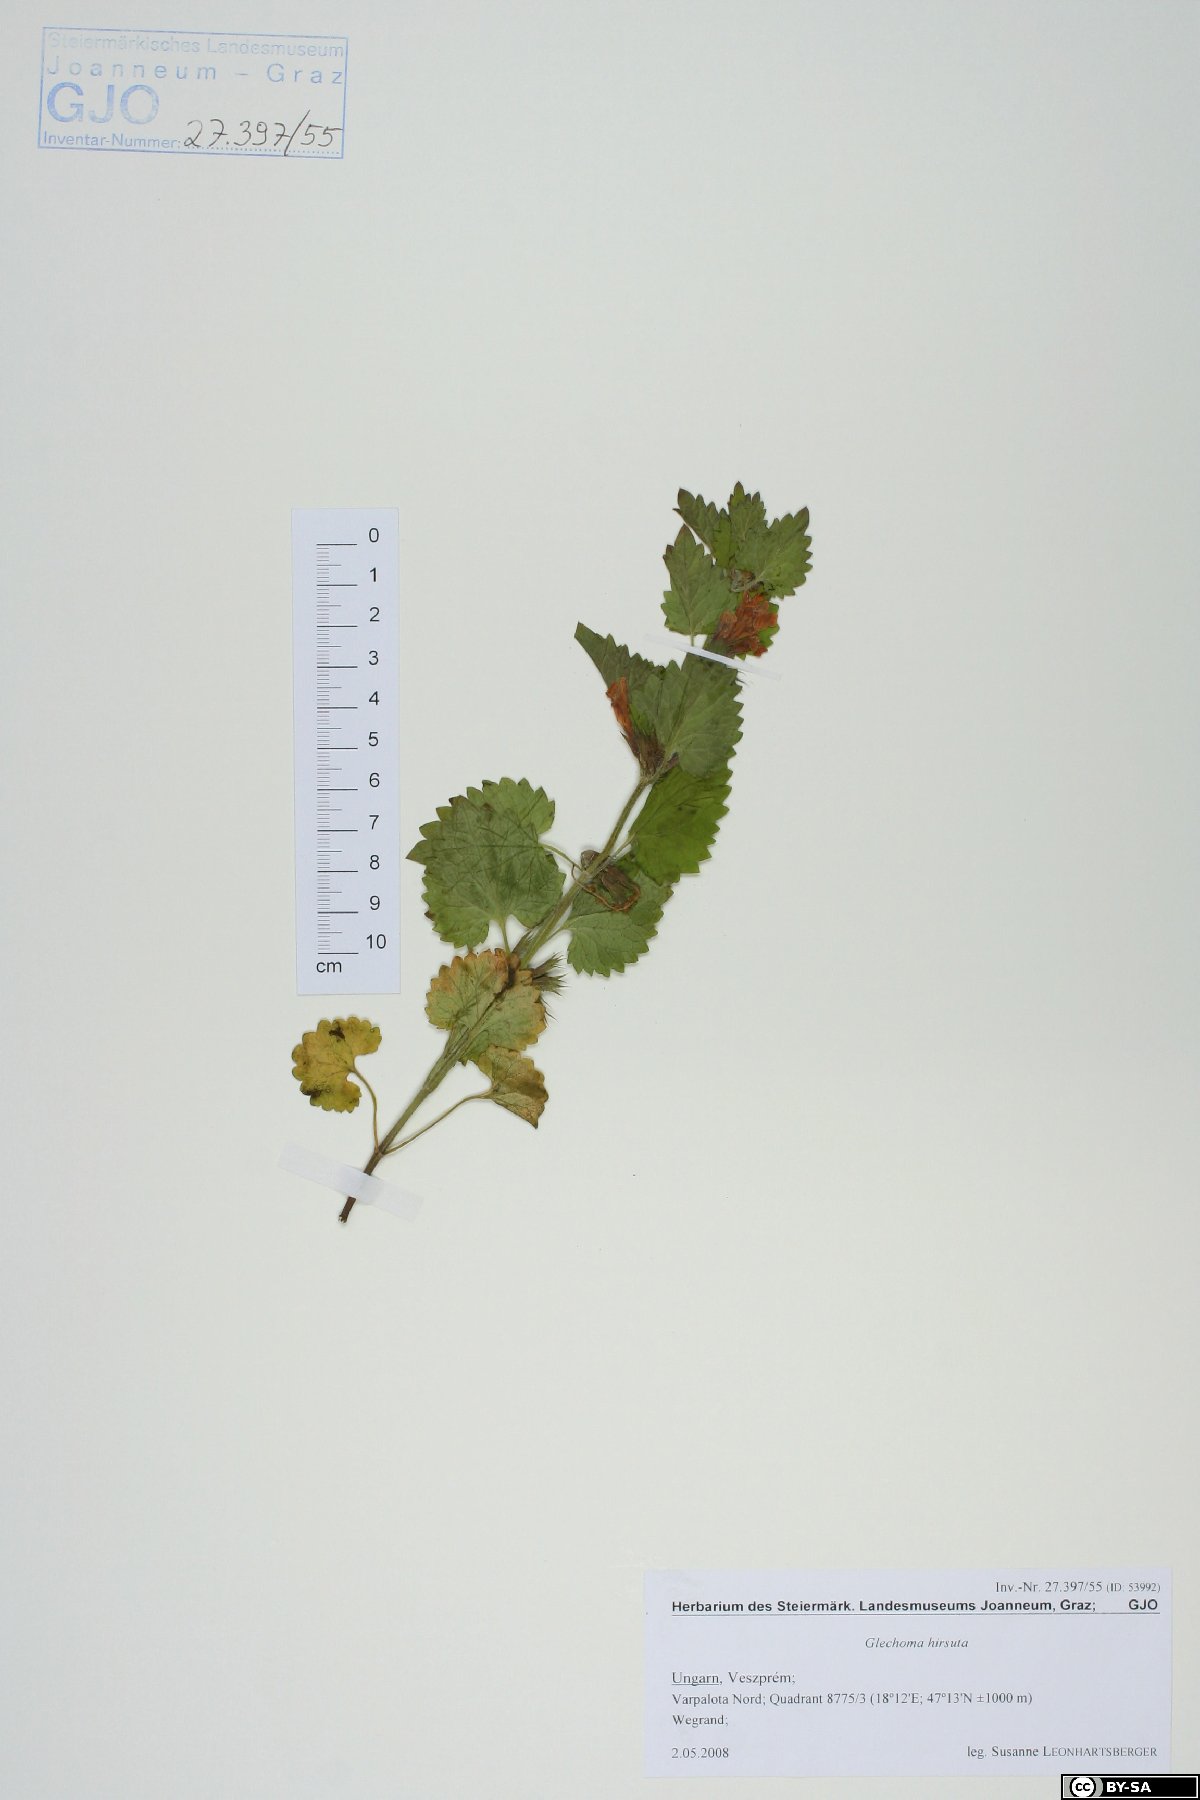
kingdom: Plantae
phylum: Tracheophyta
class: Magnoliopsida
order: Lamiales
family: Lamiaceae
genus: Glechoma
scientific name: Glechoma hirsuta
